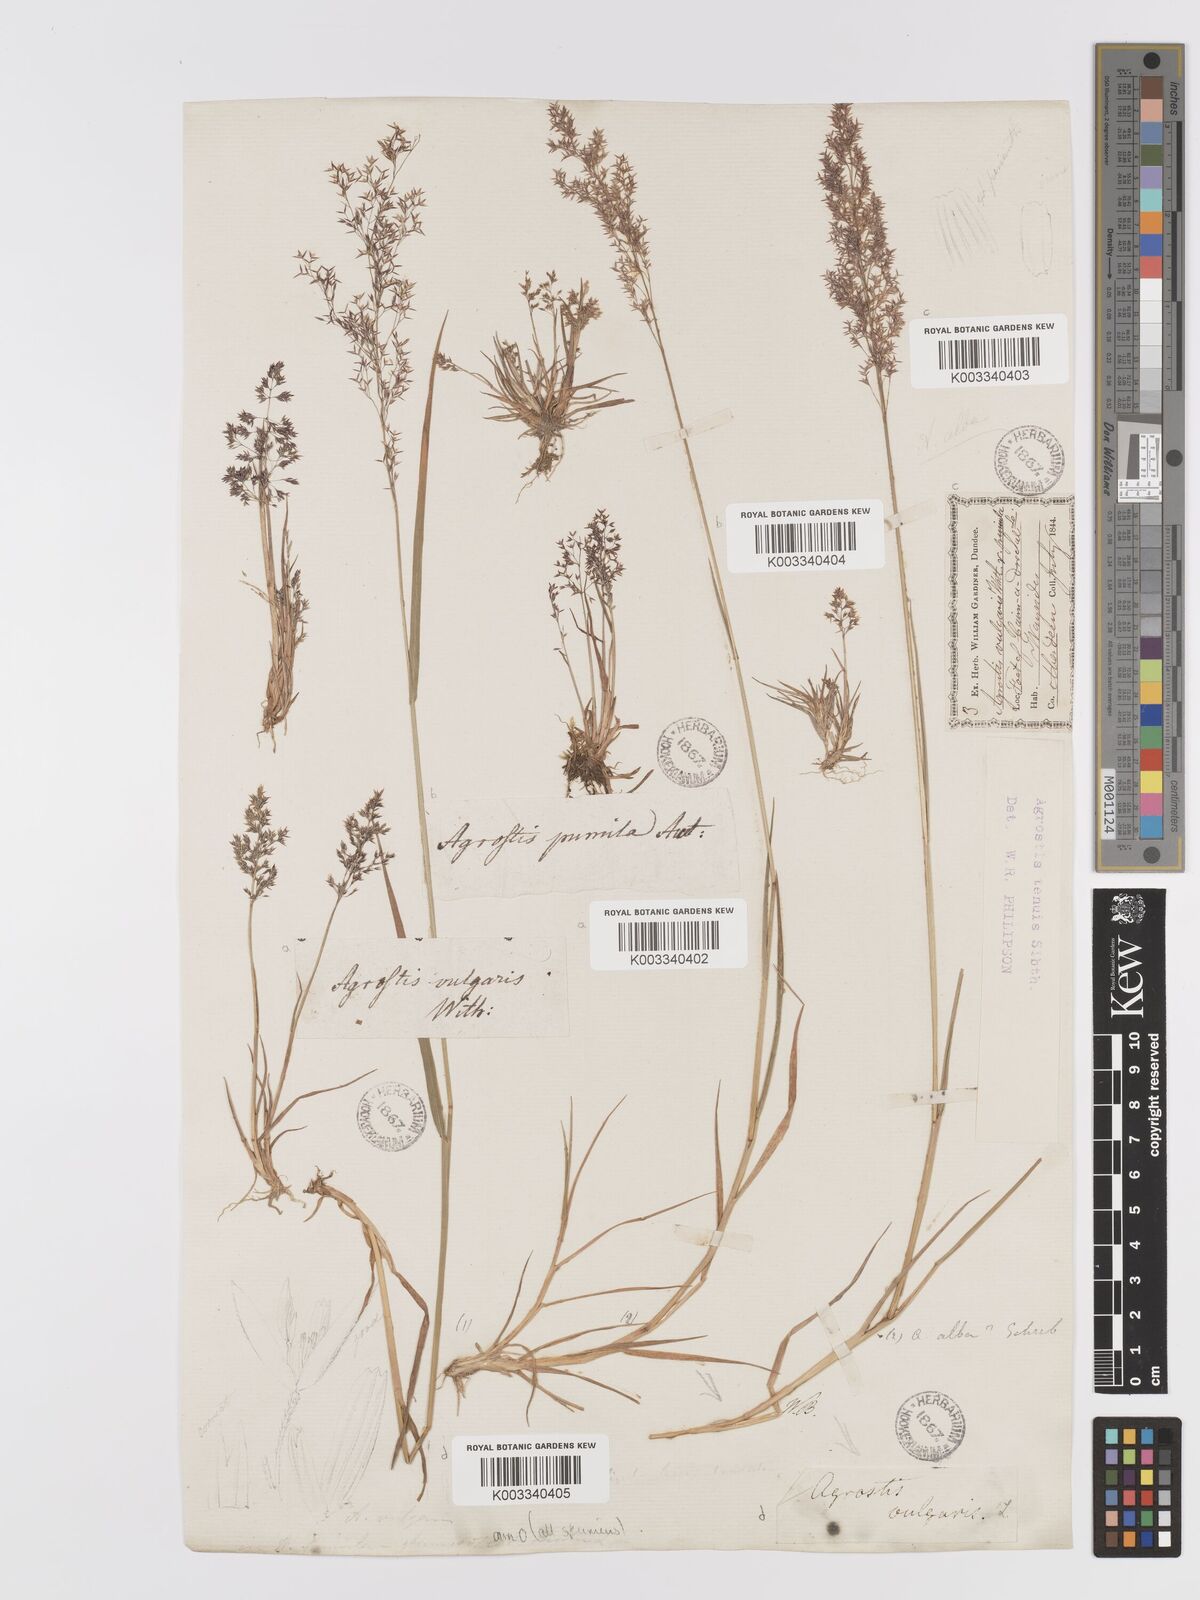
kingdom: Plantae
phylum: Tracheophyta
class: Liliopsida
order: Poales
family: Poaceae
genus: Agrostis
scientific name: Agrostis capillaris
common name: Colonial bentgrass
